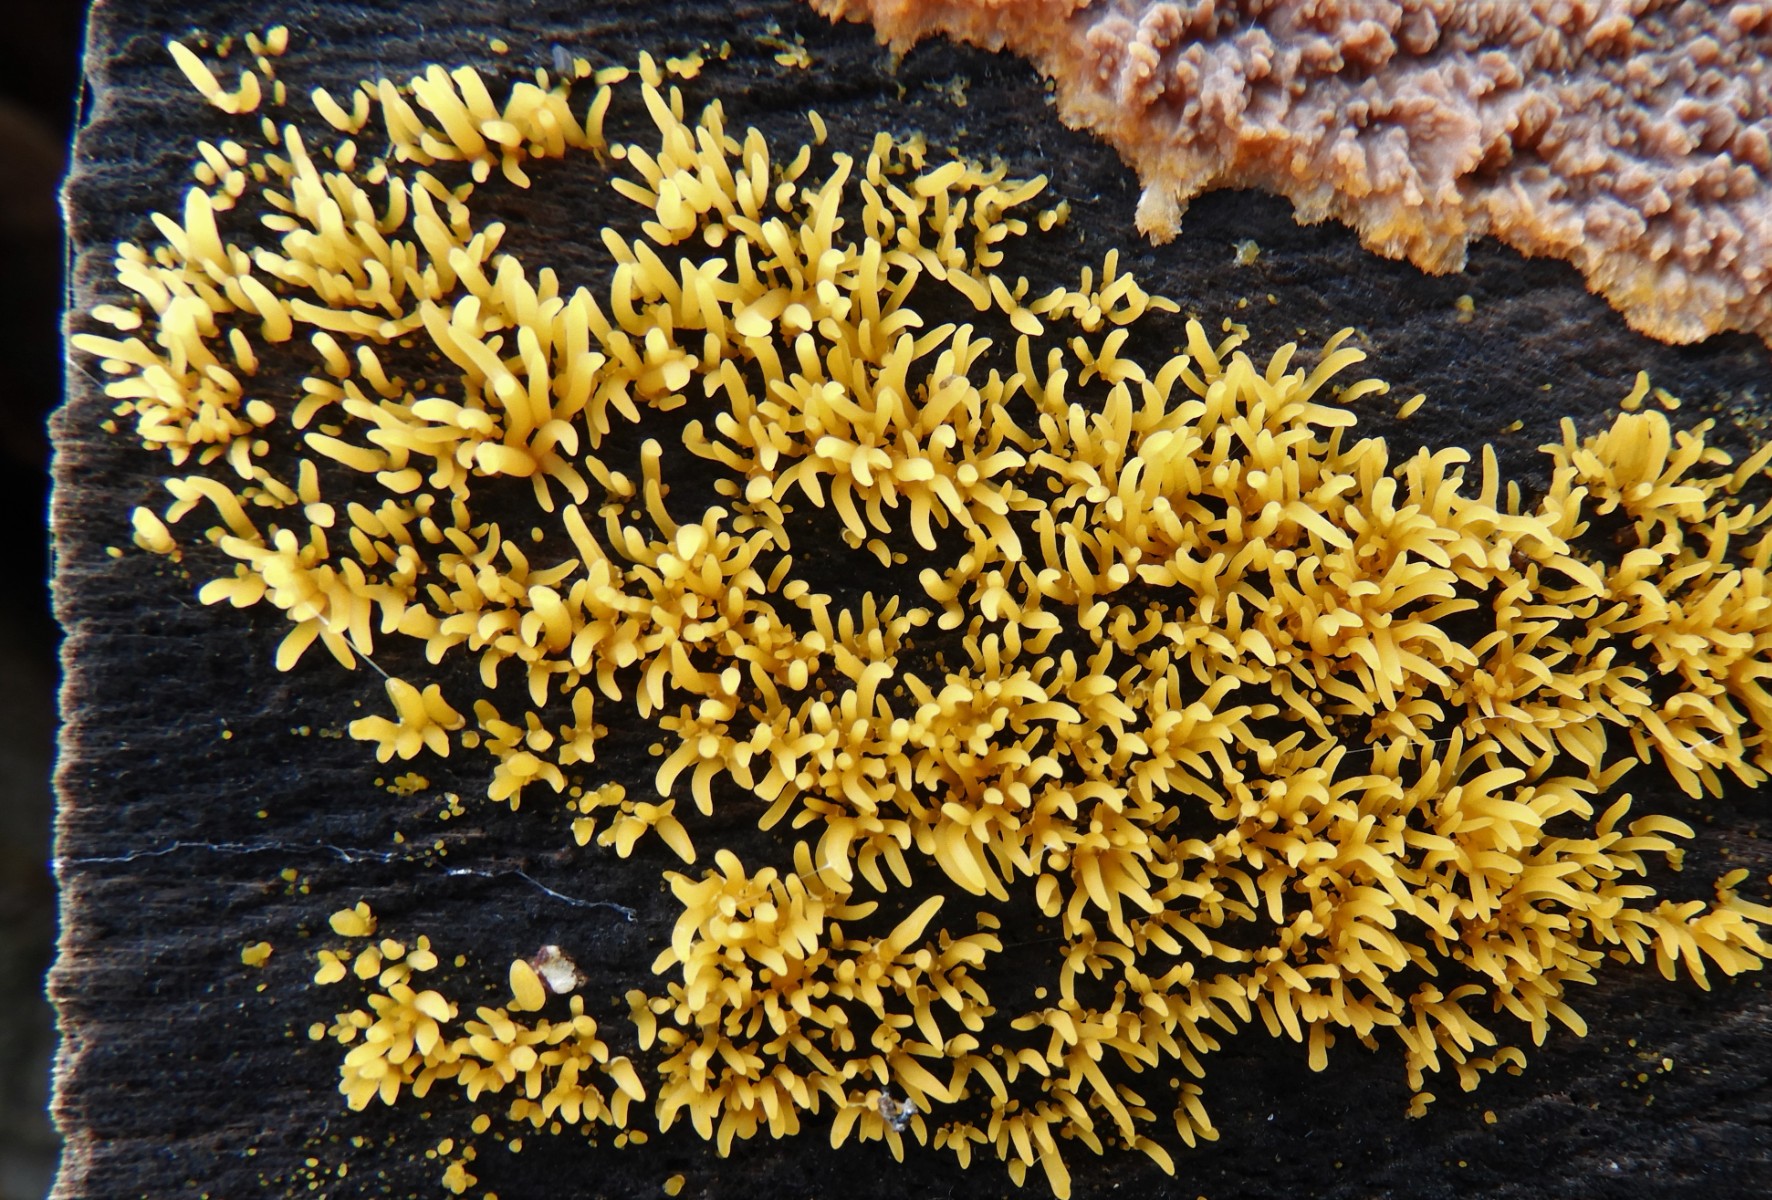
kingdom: Fungi
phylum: Basidiomycota
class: Dacrymycetes
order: Dacrymycetales
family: Dacrymycetaceae
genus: Calocera
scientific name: Calocera cornea
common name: liden guldgaffel
